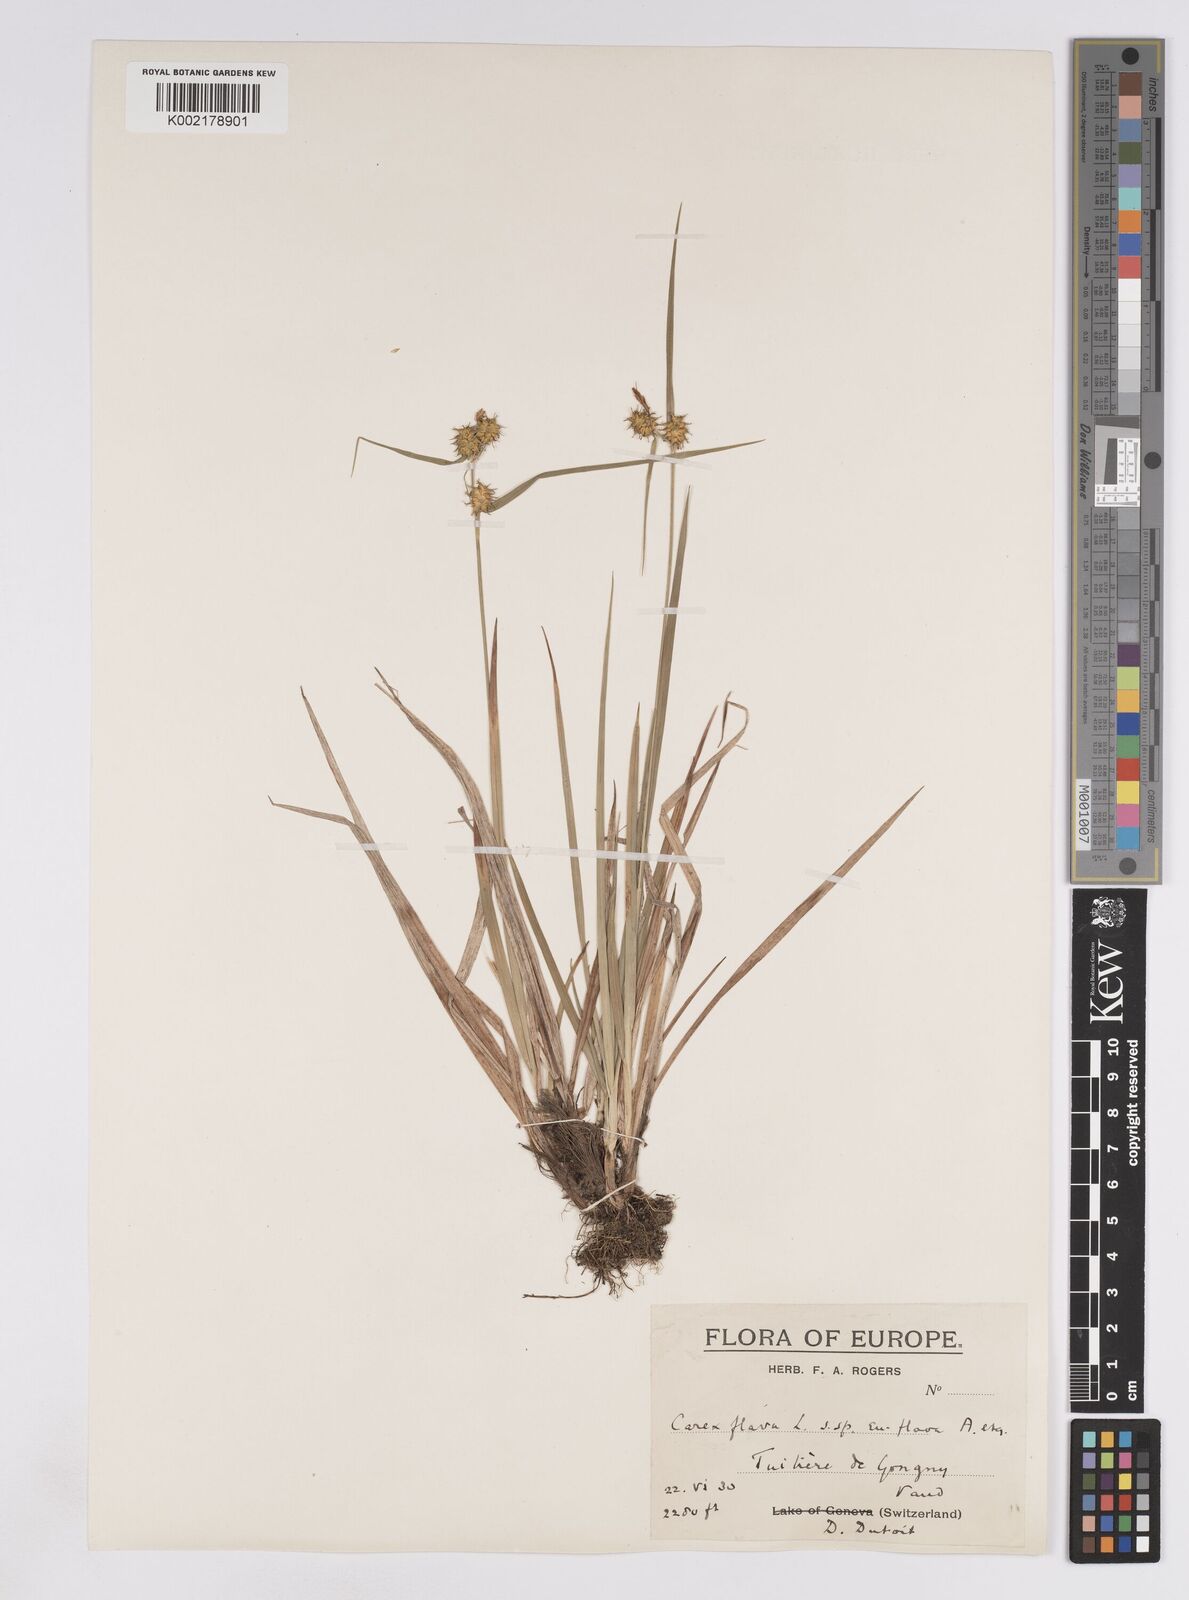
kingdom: Plantae
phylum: Tracheophyta
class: Liliopsida
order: Poales
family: Cyperaceae
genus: Carex
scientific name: Carex lepidocarpa
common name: Long-stalked yellow-sedge
